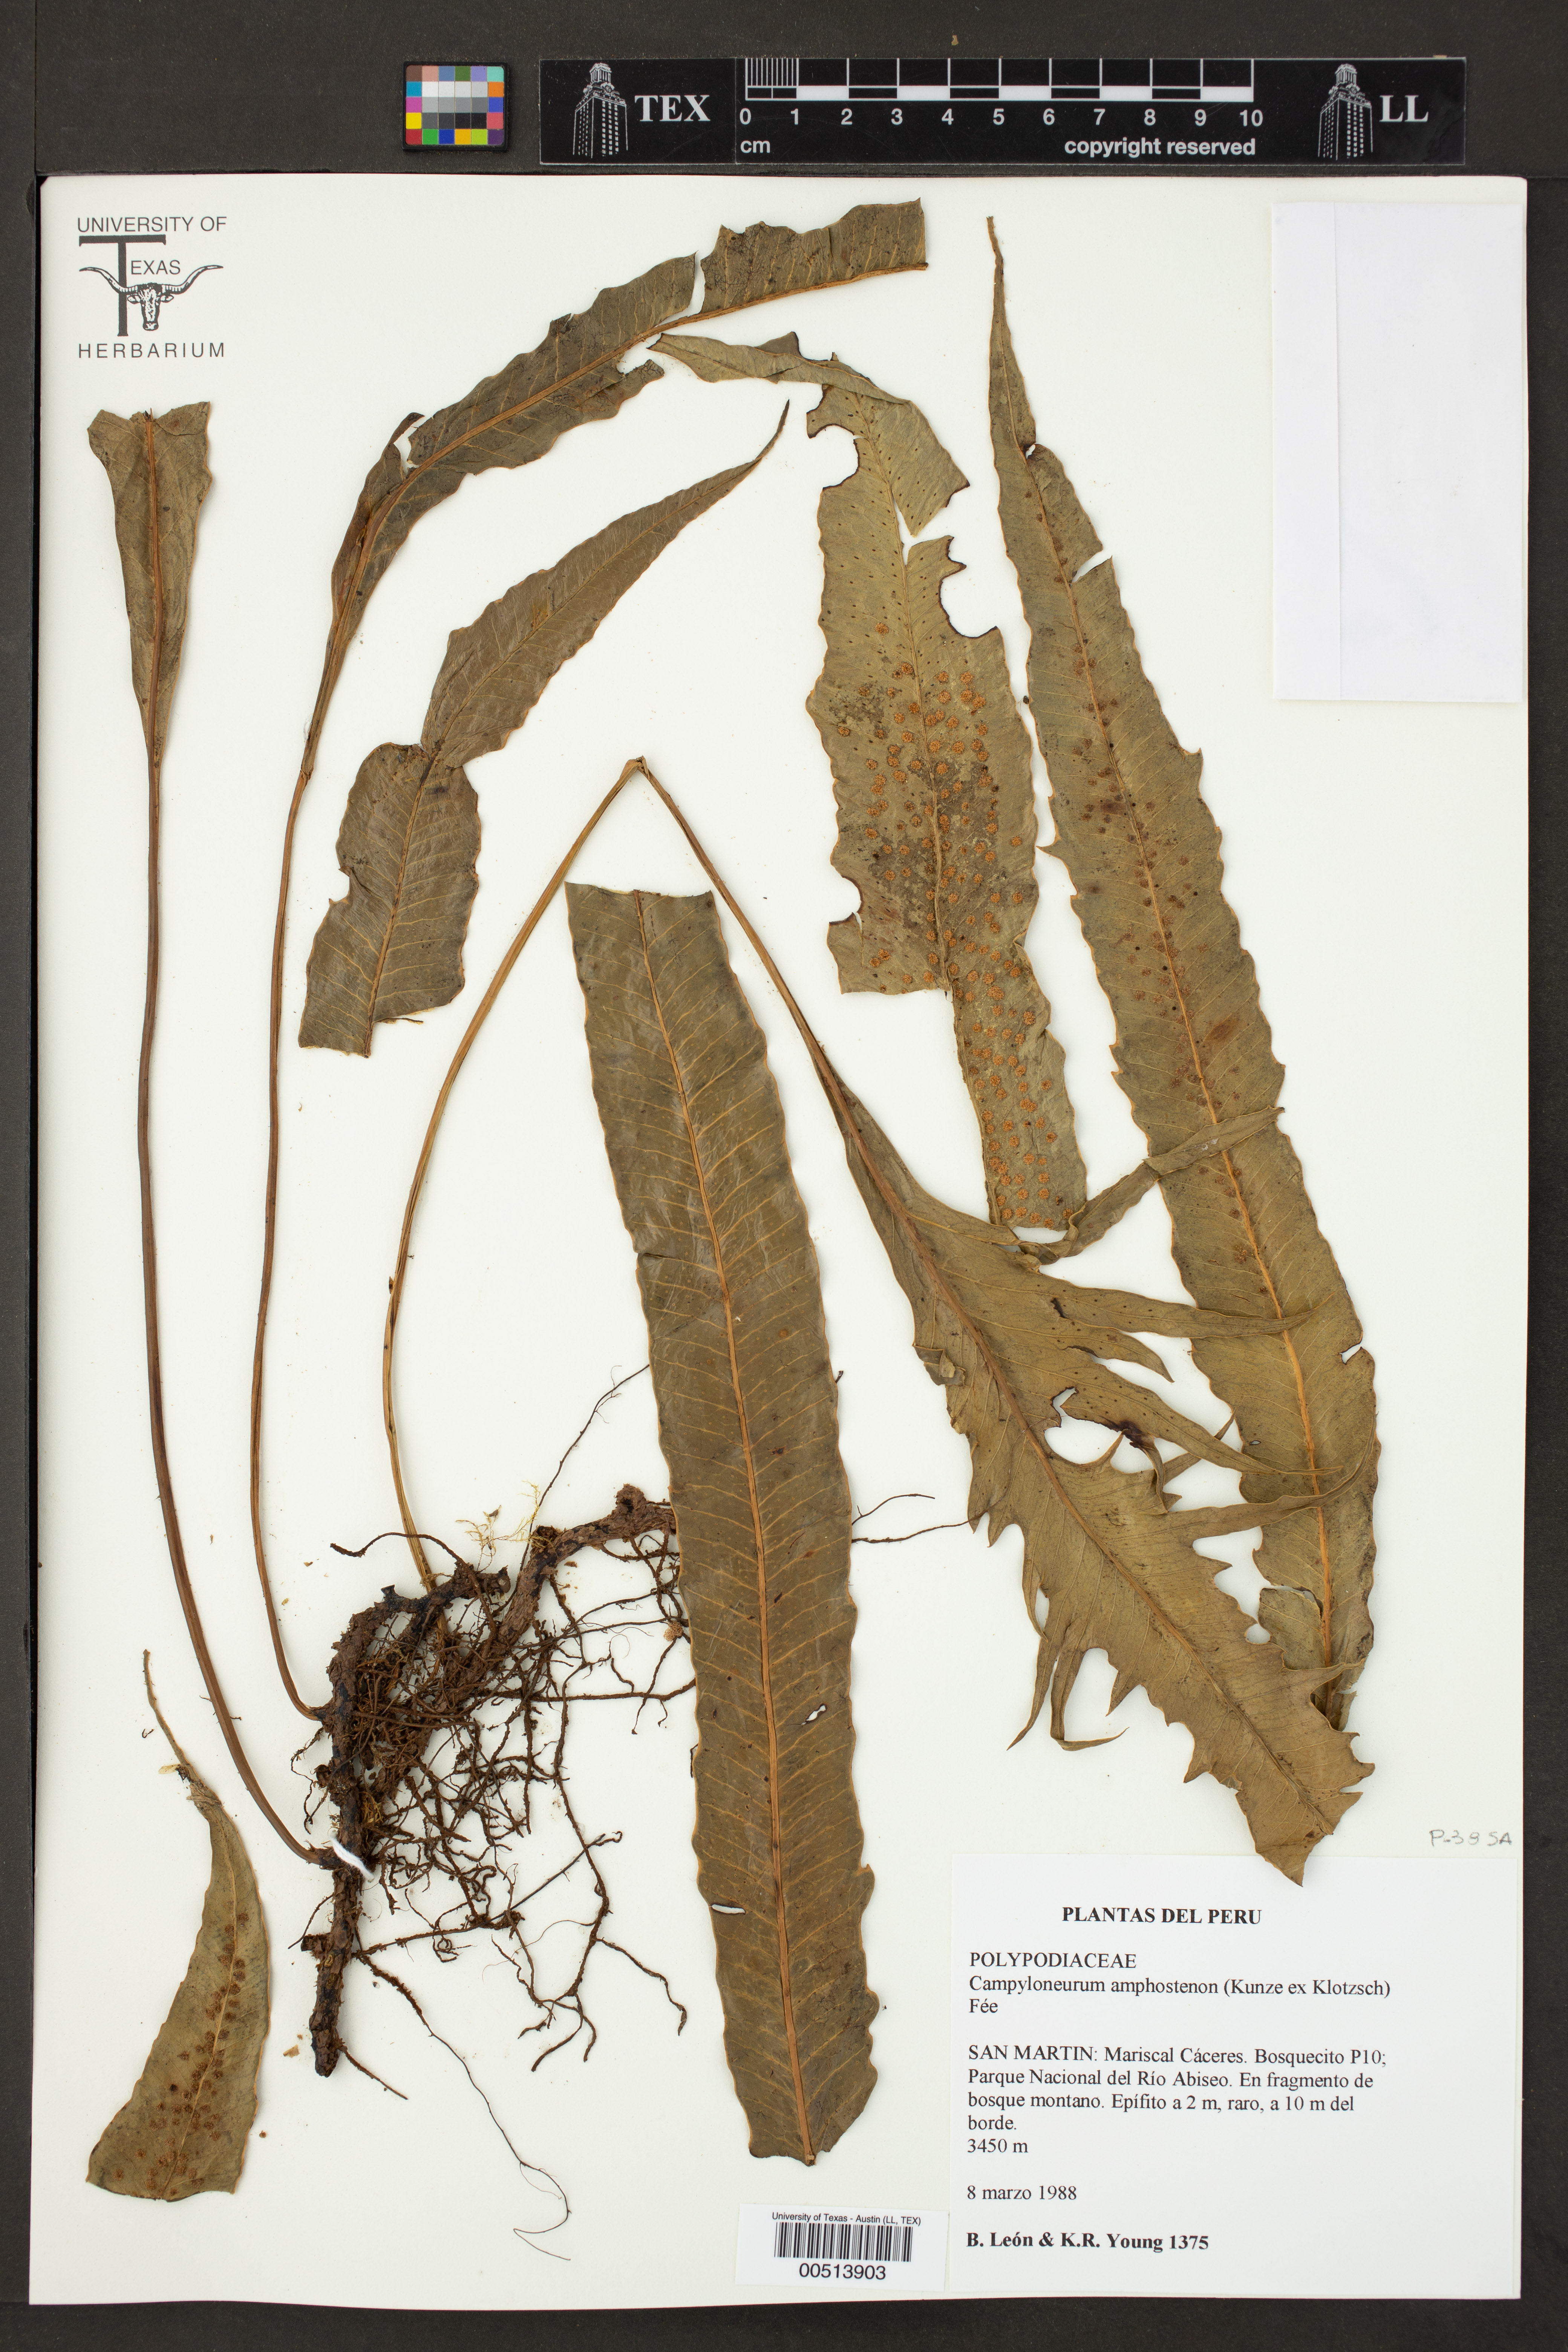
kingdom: Plantae
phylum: Tracheophyta
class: Polypodiopsida
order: Polypodiales
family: Polypodiaceae
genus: Campyloneurum
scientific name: Campyloneurum amphostenon
